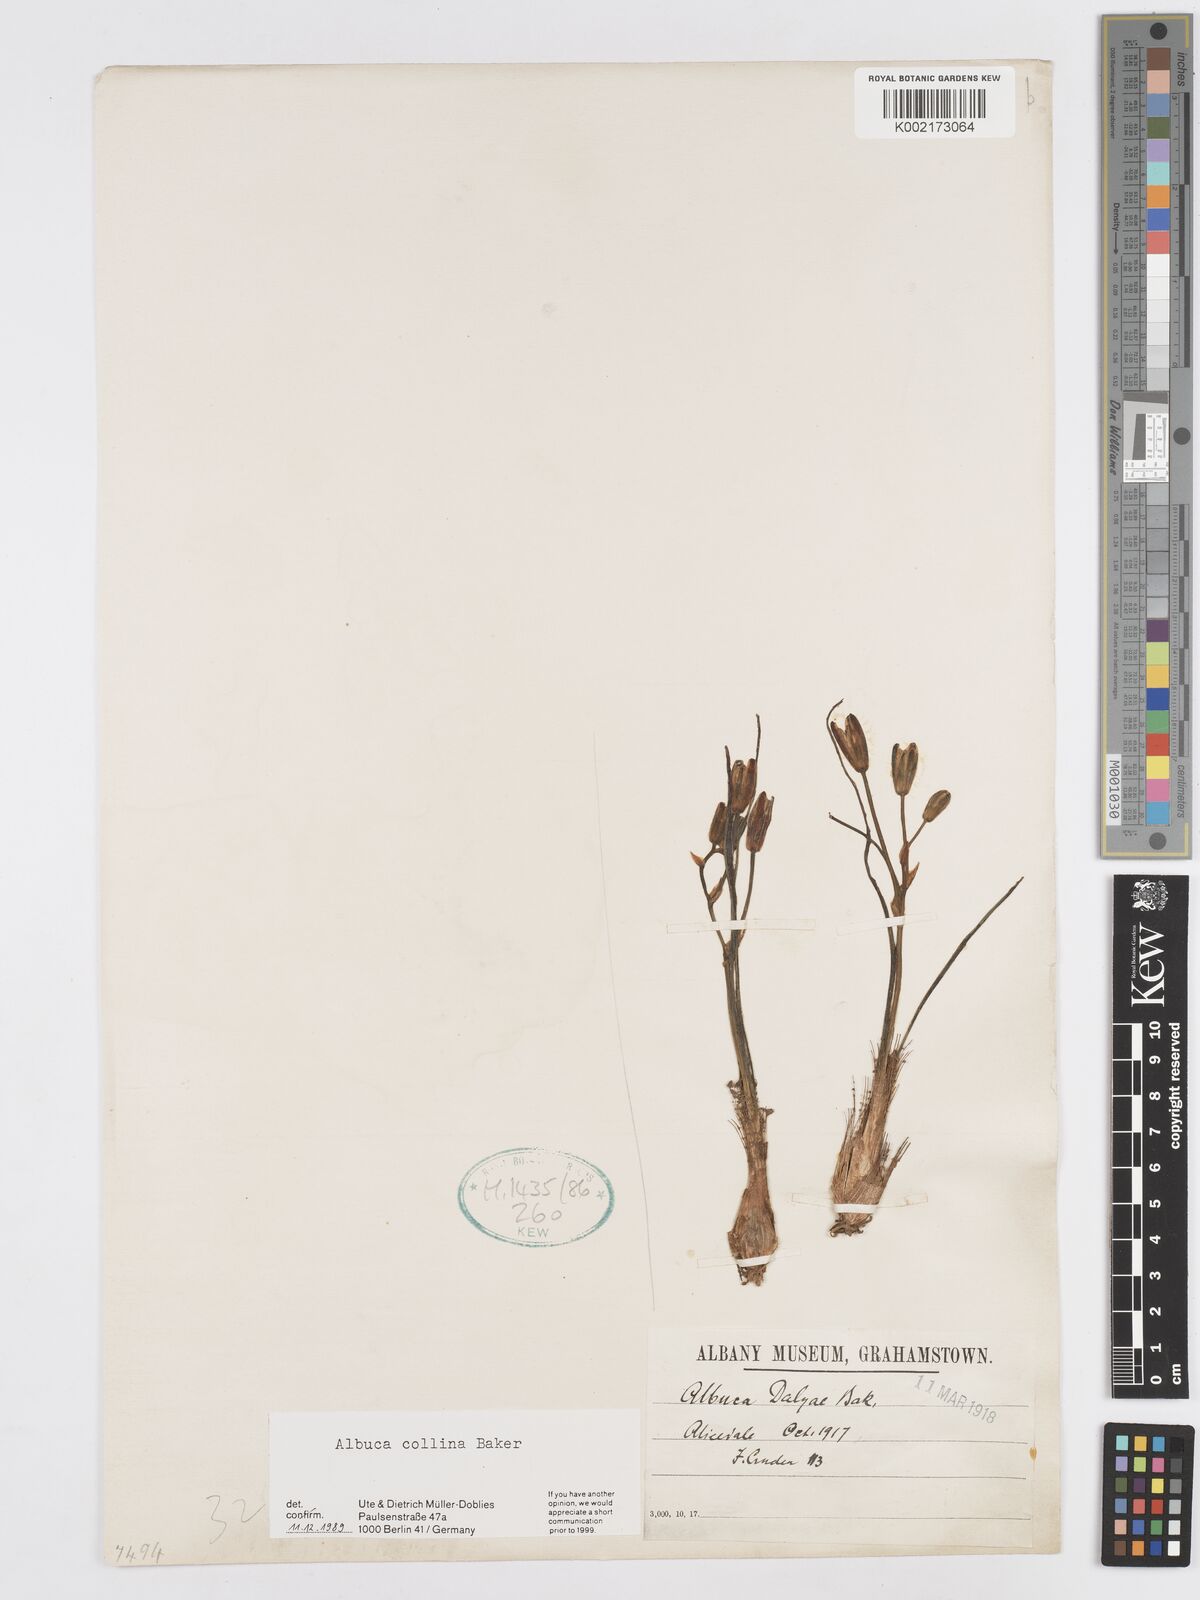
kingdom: Plantae
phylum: Tracheophyta
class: Liliopsida
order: Asparagales
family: Asparagaceae
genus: Albuca
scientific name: Albuca collina
